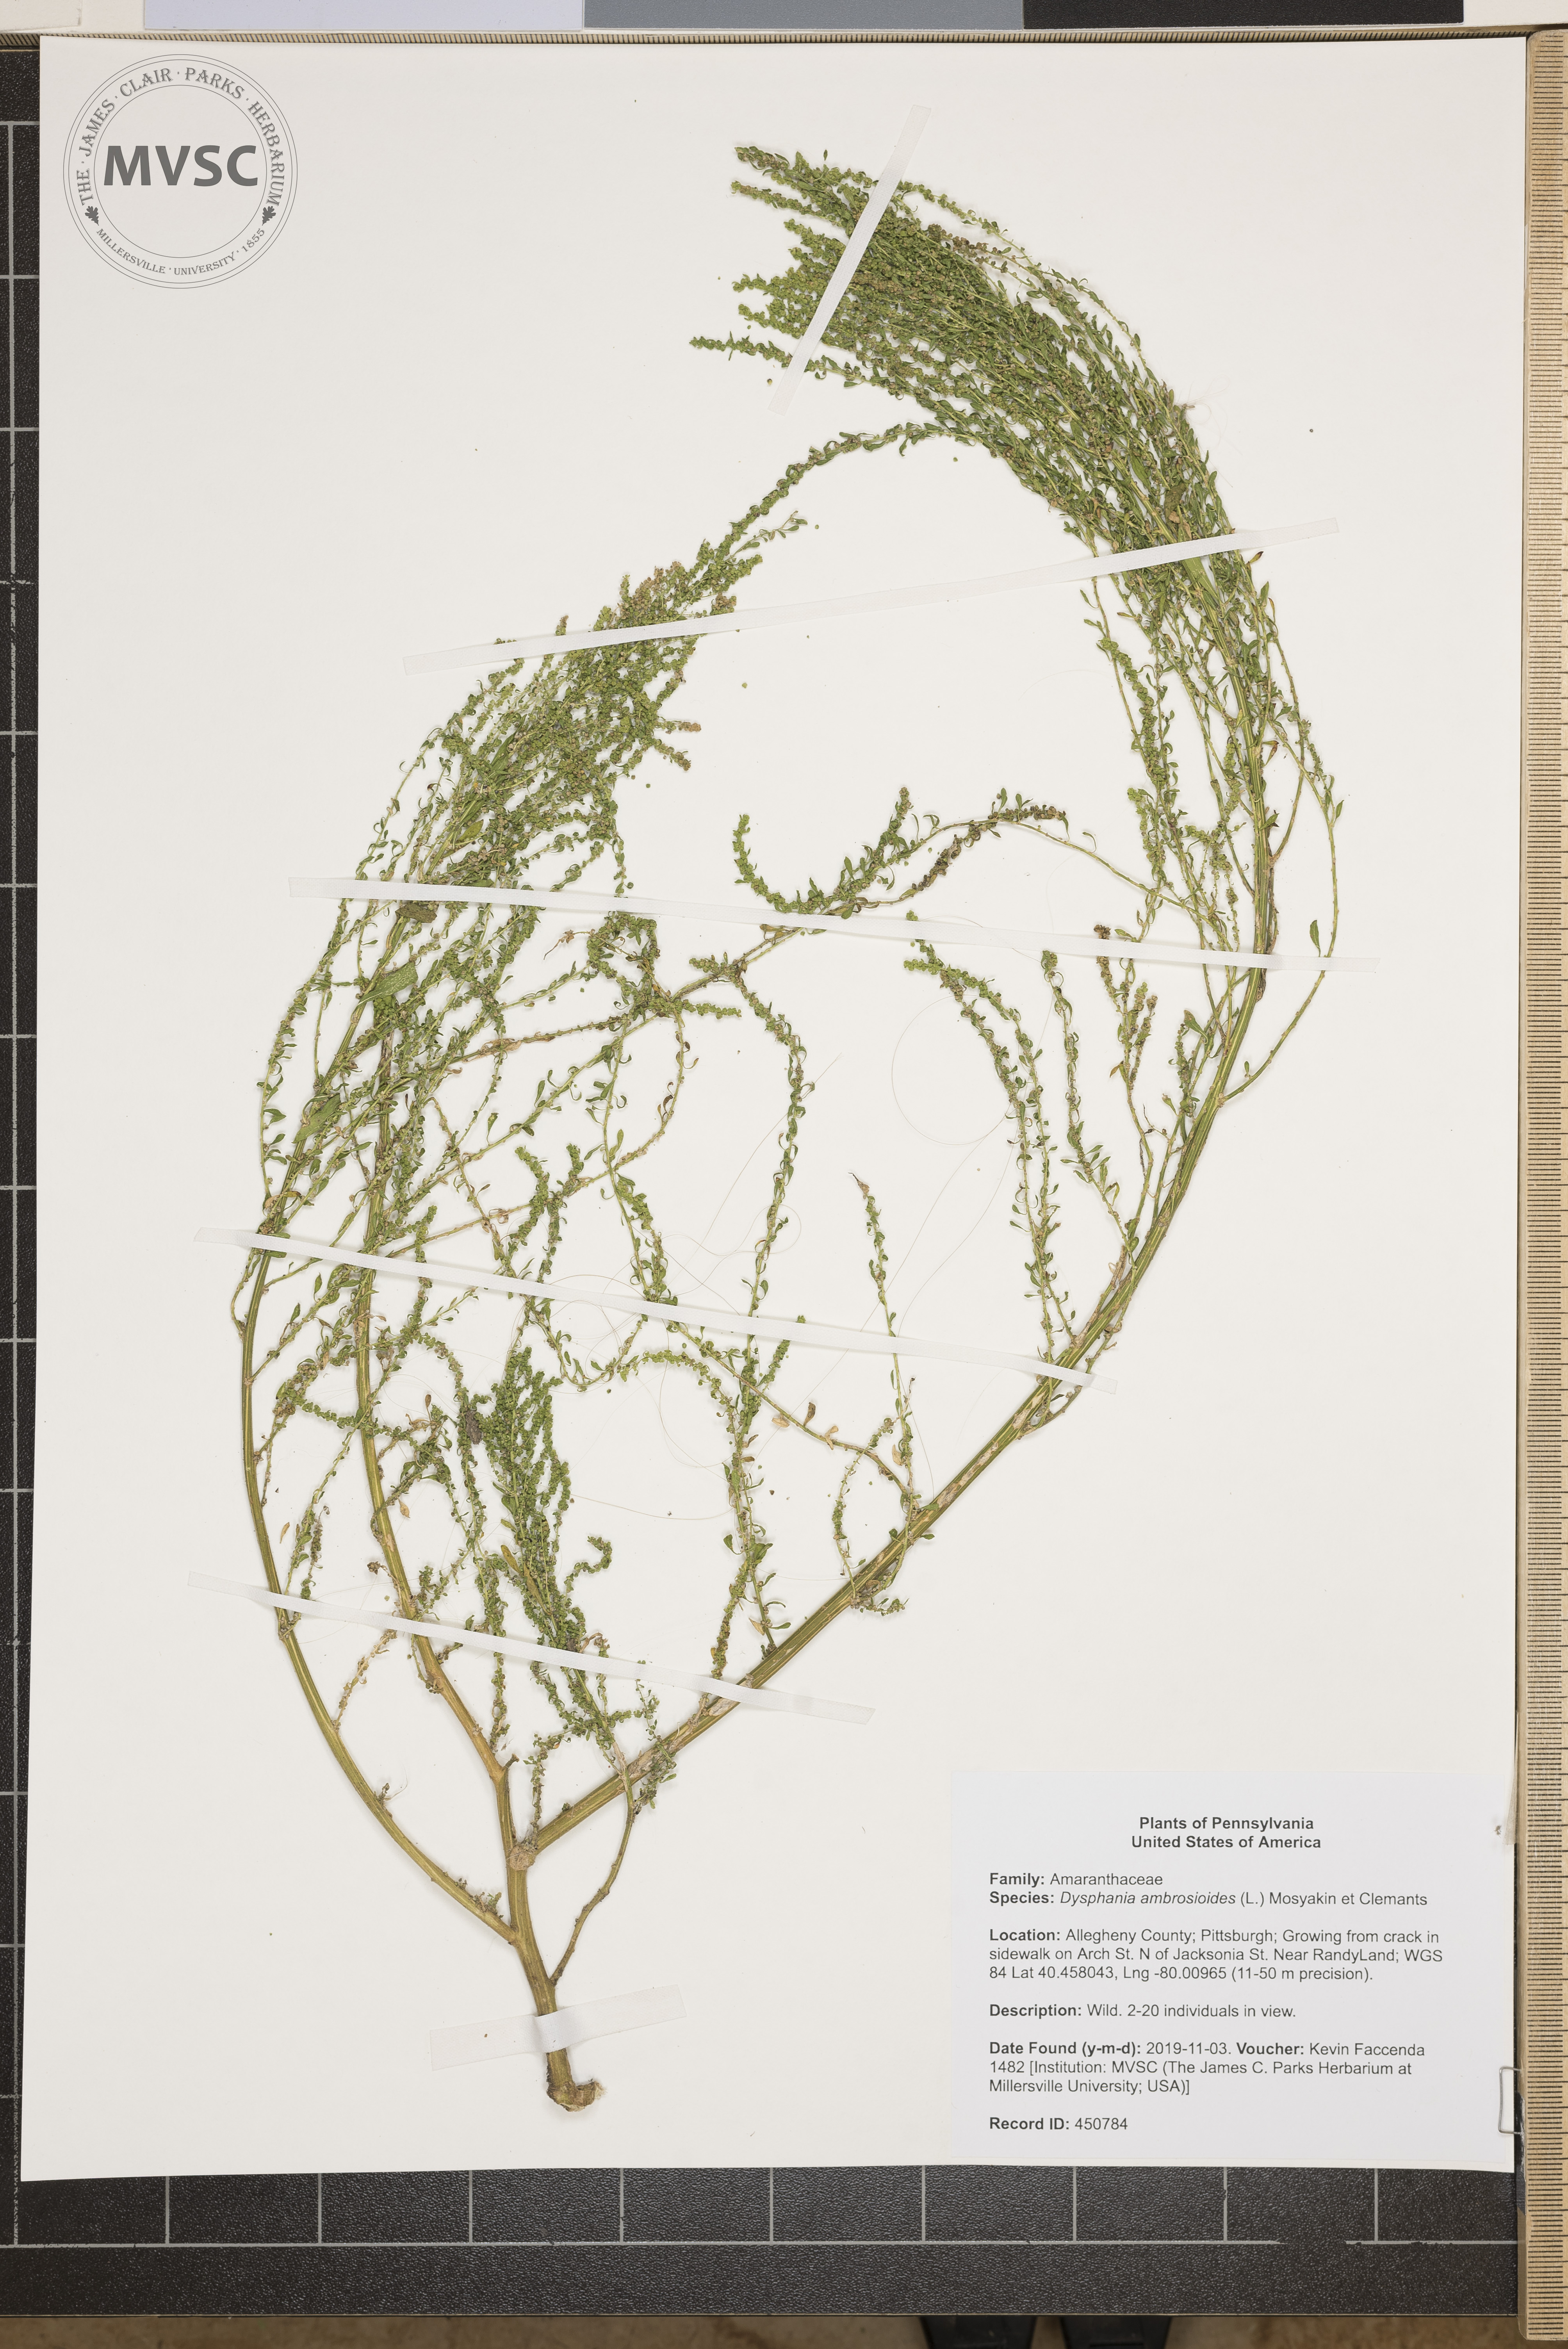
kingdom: Plantae
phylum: Tracheophyta
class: Magnoliopsida
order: Caryophyllales
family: Amaranthaceae
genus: Dysphania
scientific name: Dysphania ambrosioides
